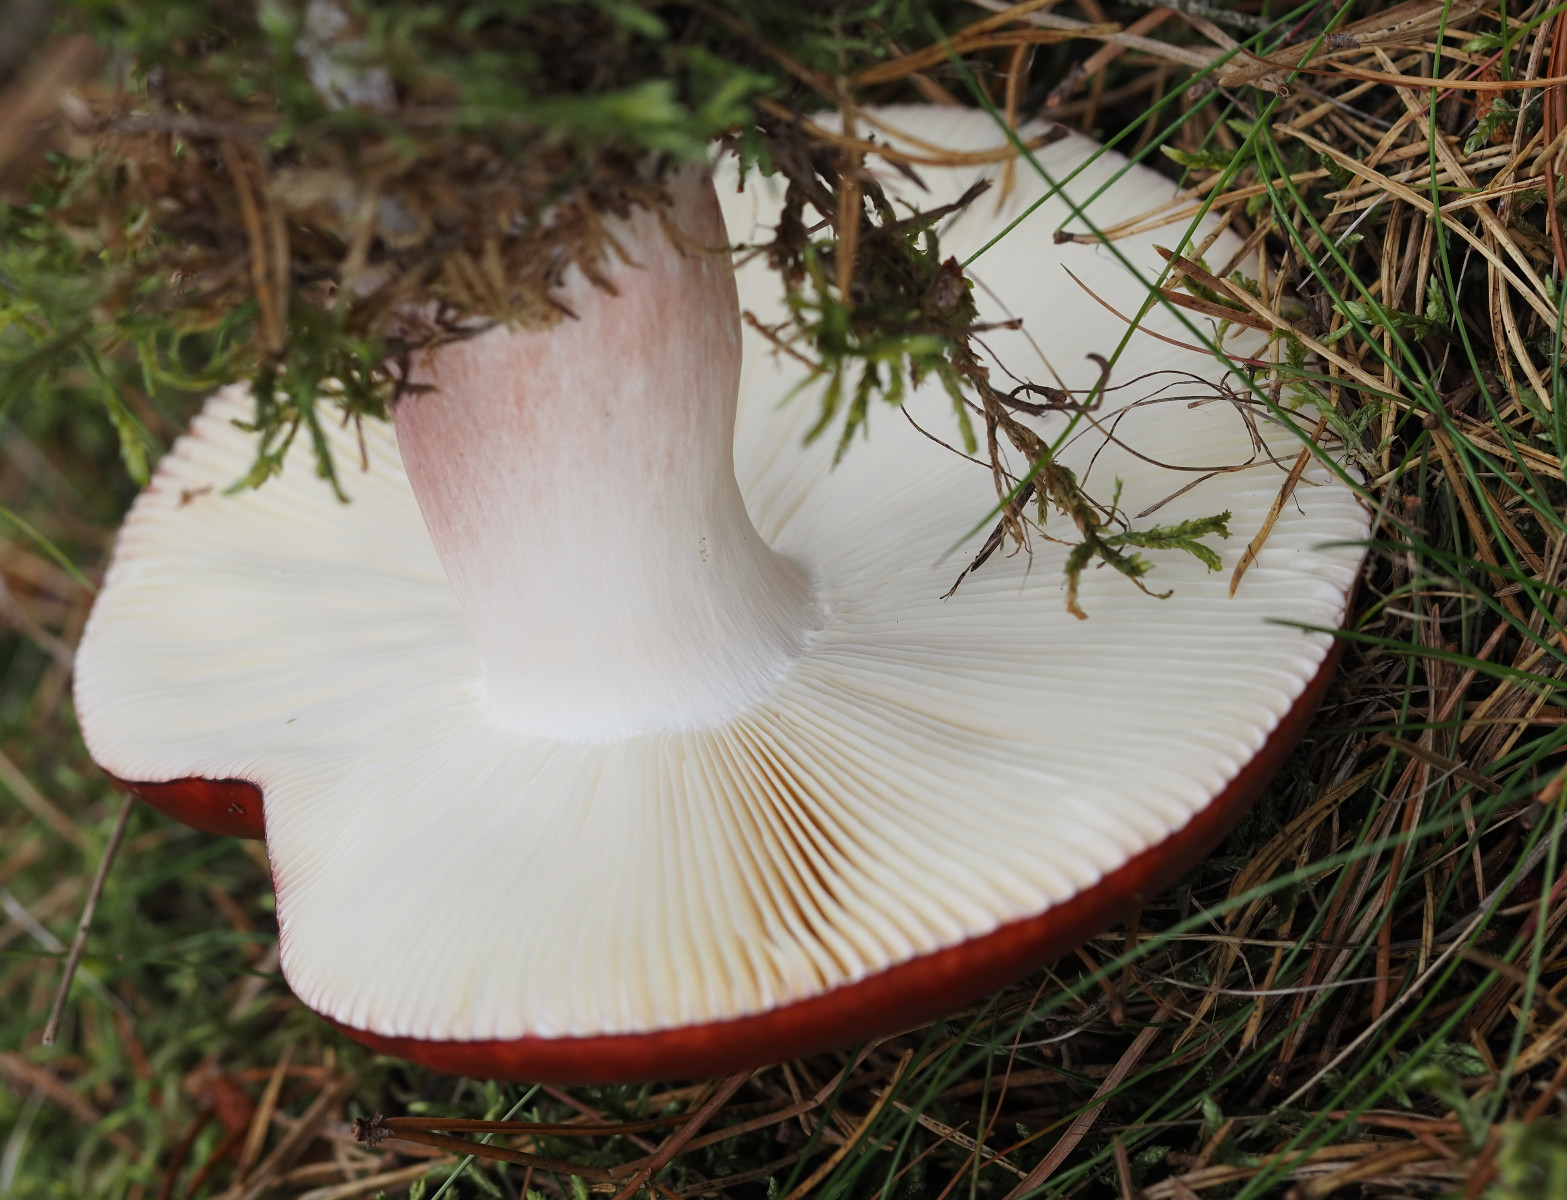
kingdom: Fungi
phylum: Basidiomycota
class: Agaricomycetes
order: Russulales
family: Russulaceae
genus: Russula
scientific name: Russula paludosa
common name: prægtig skørhat
